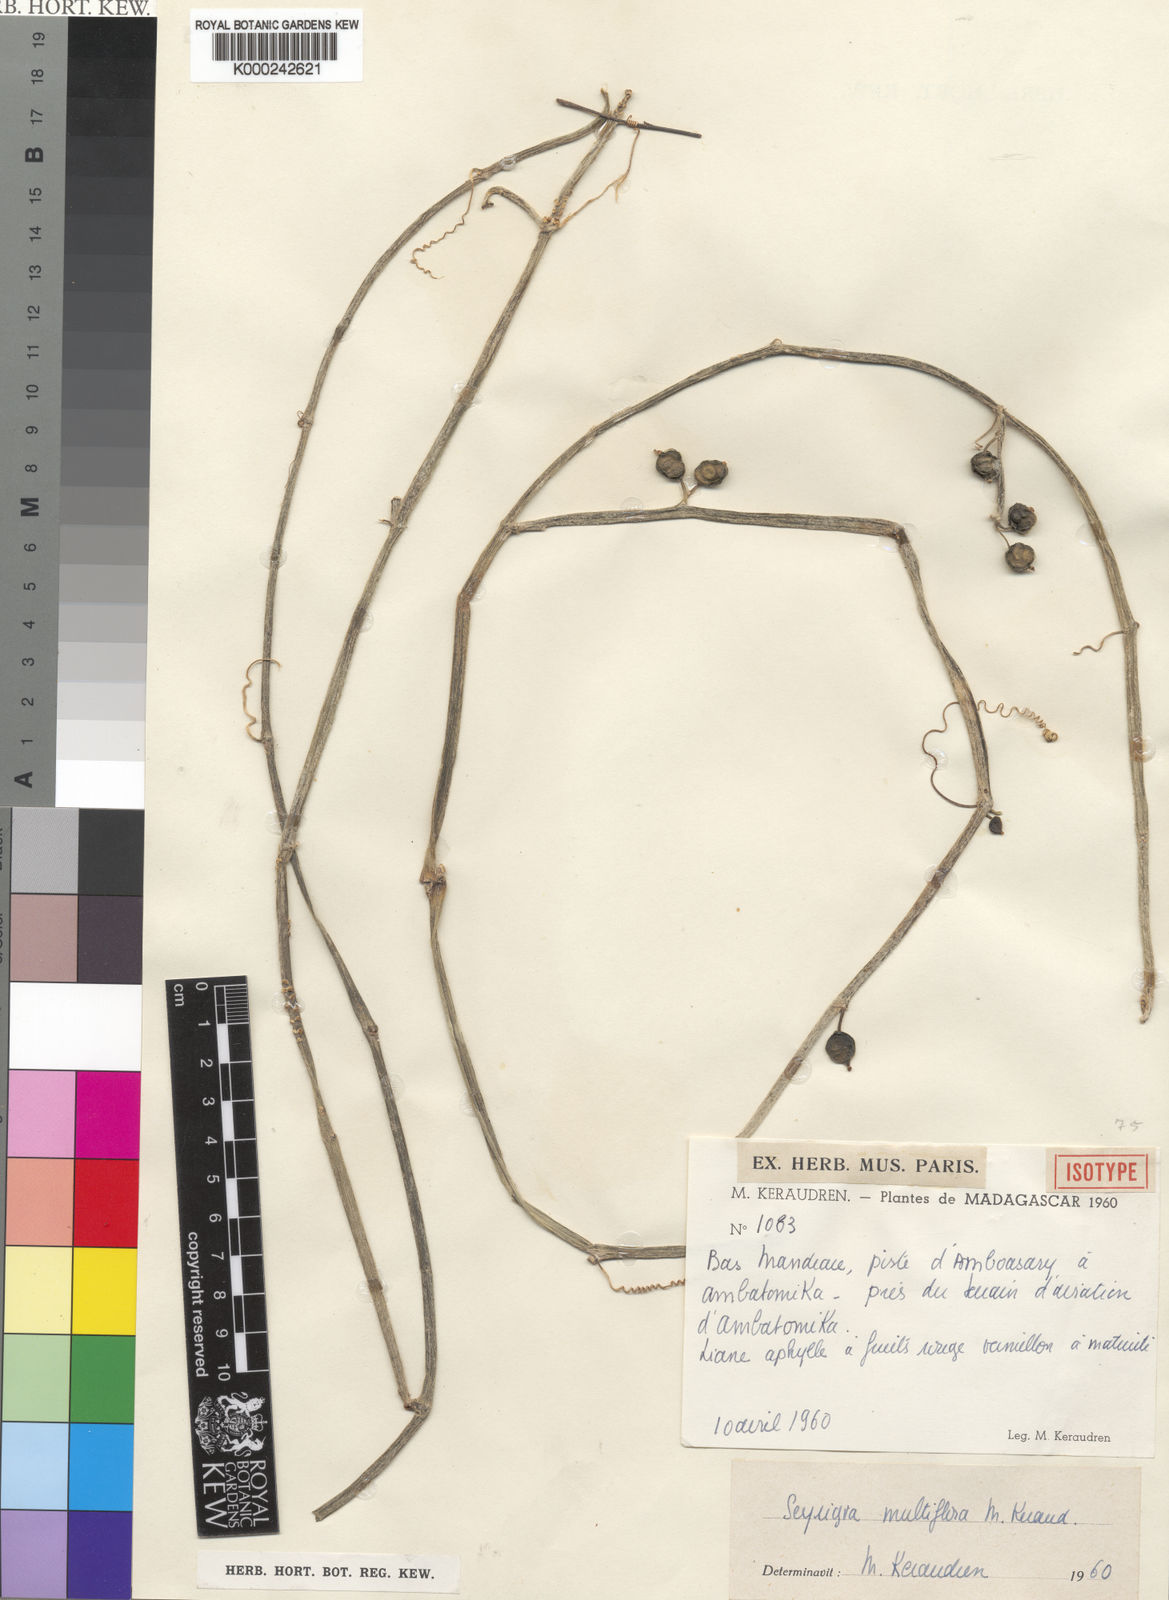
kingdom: Plantae
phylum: Tracheophyta
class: Magnoliopsida
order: Cucurbitales
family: Cucurbitaceae
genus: Seyrigia
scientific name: Seyrigia multiflora
